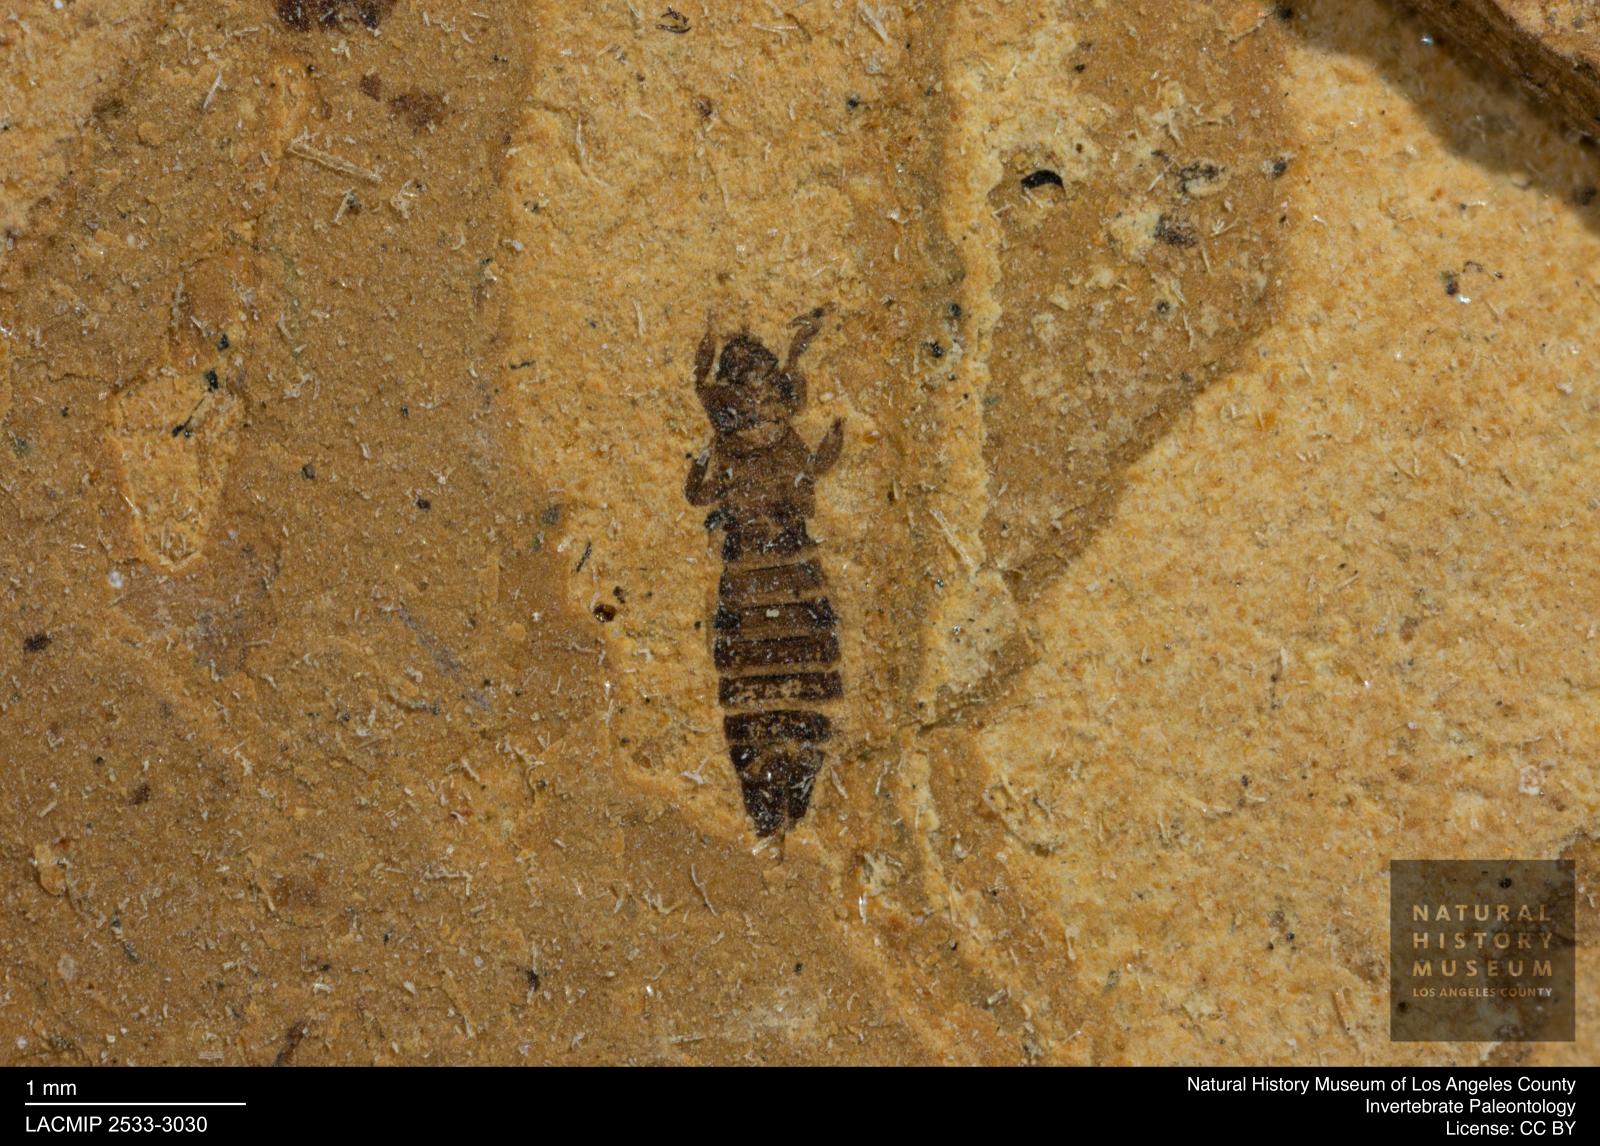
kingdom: Animalia
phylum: Arthropoda
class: Insecta
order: Thysanoptera
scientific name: Thysanoptera
